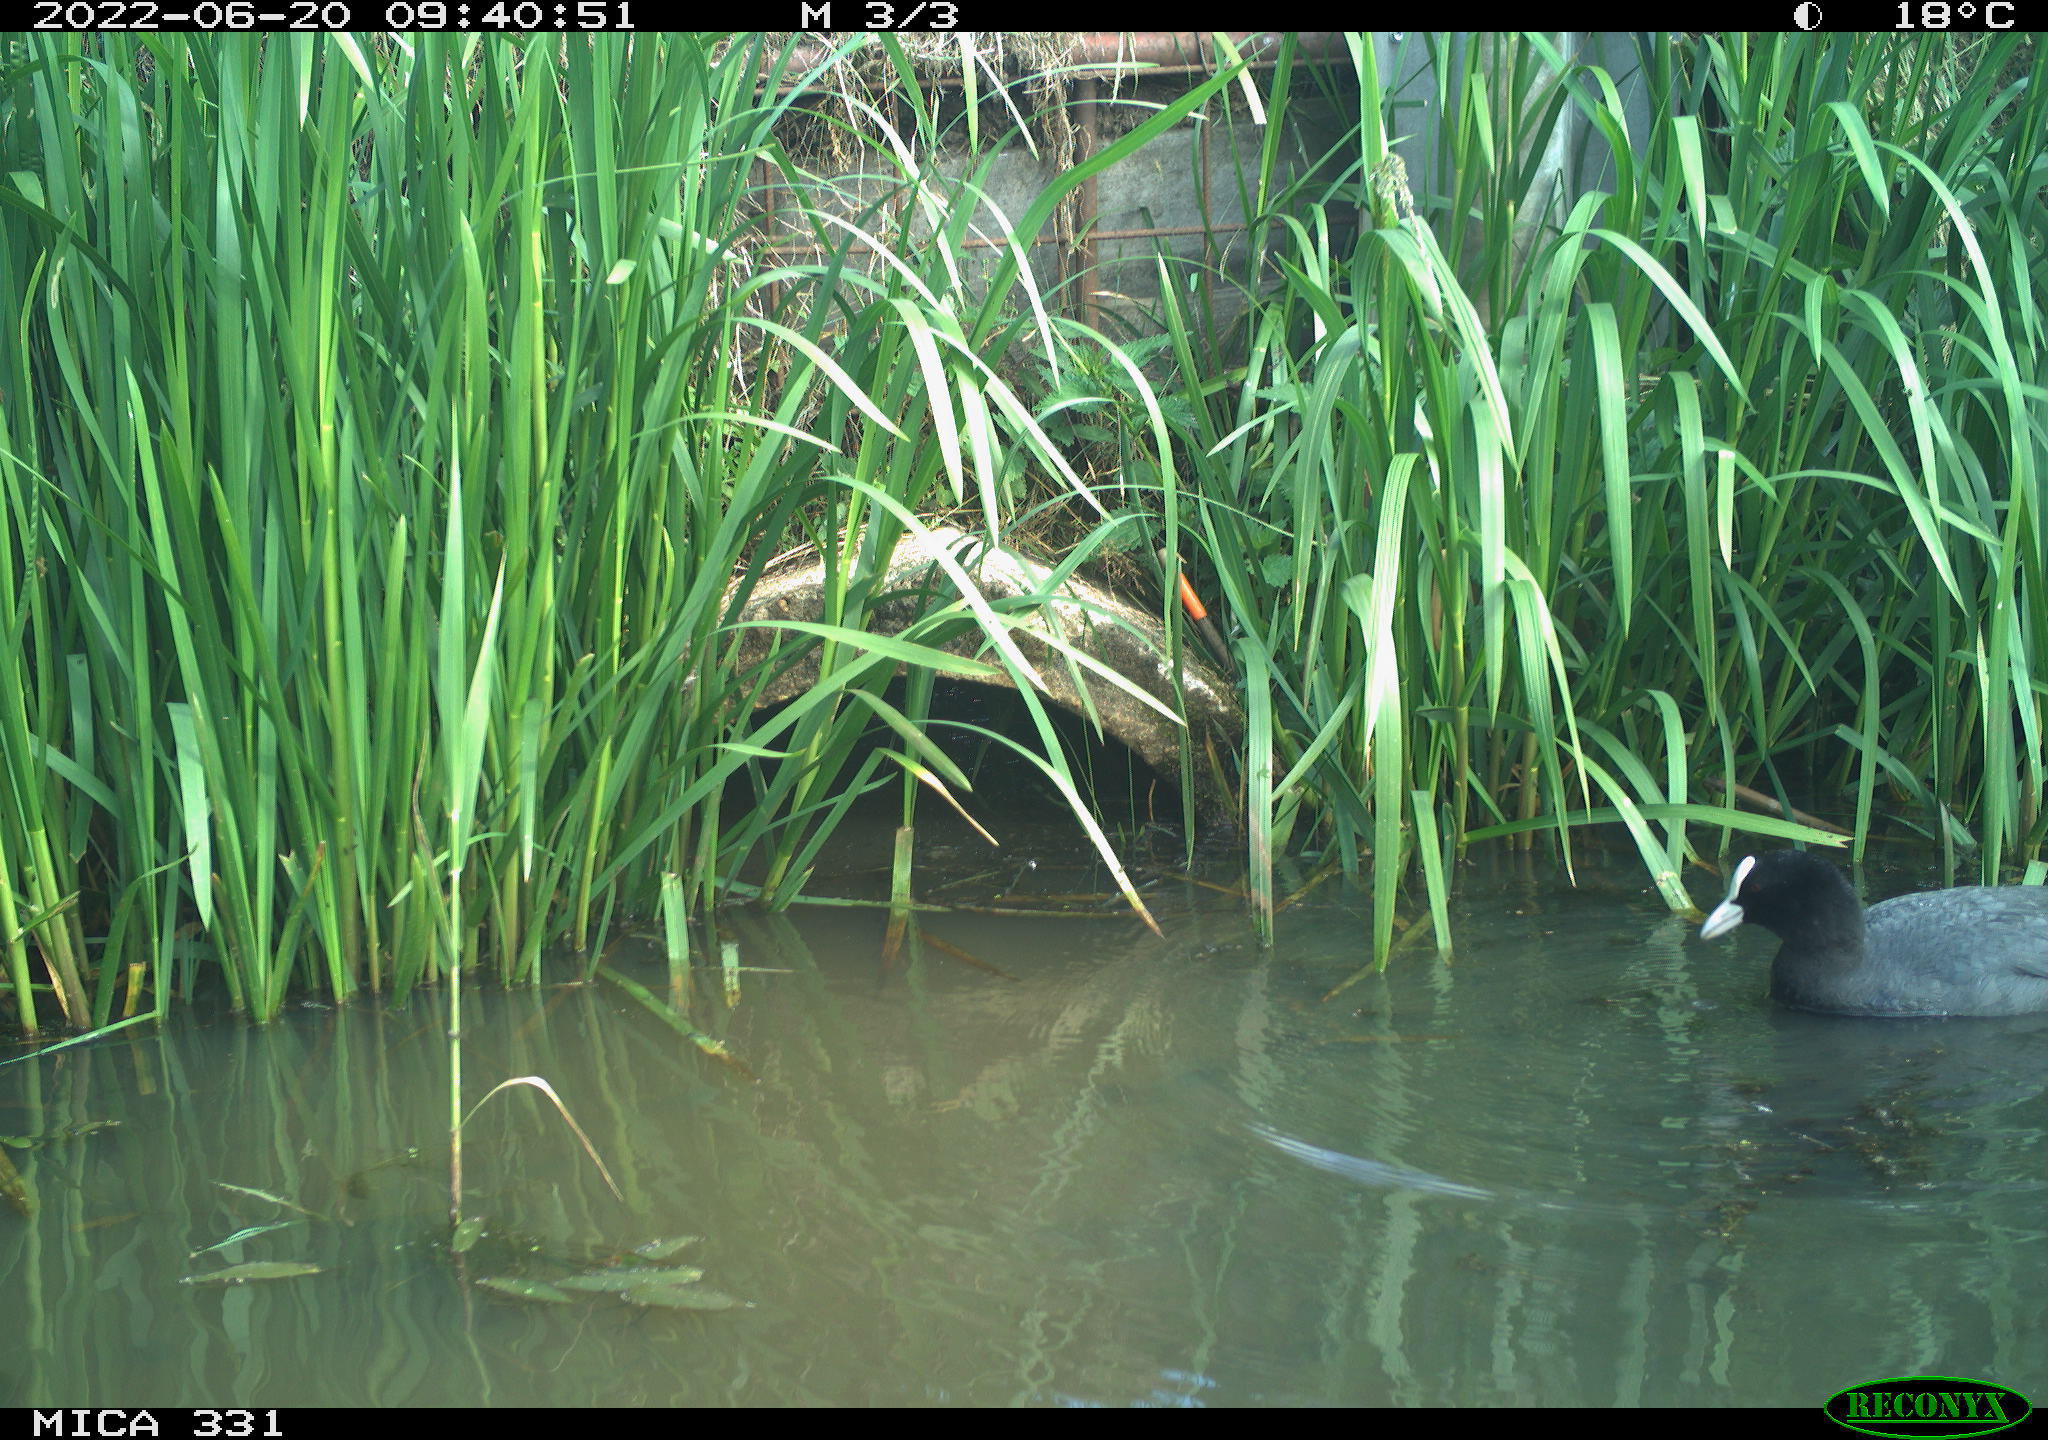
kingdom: Animalia
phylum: Chordata
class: Aves
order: Gruiformes
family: Rallidae
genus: Fulica
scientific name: Fulica atra
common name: Eurasian coot
